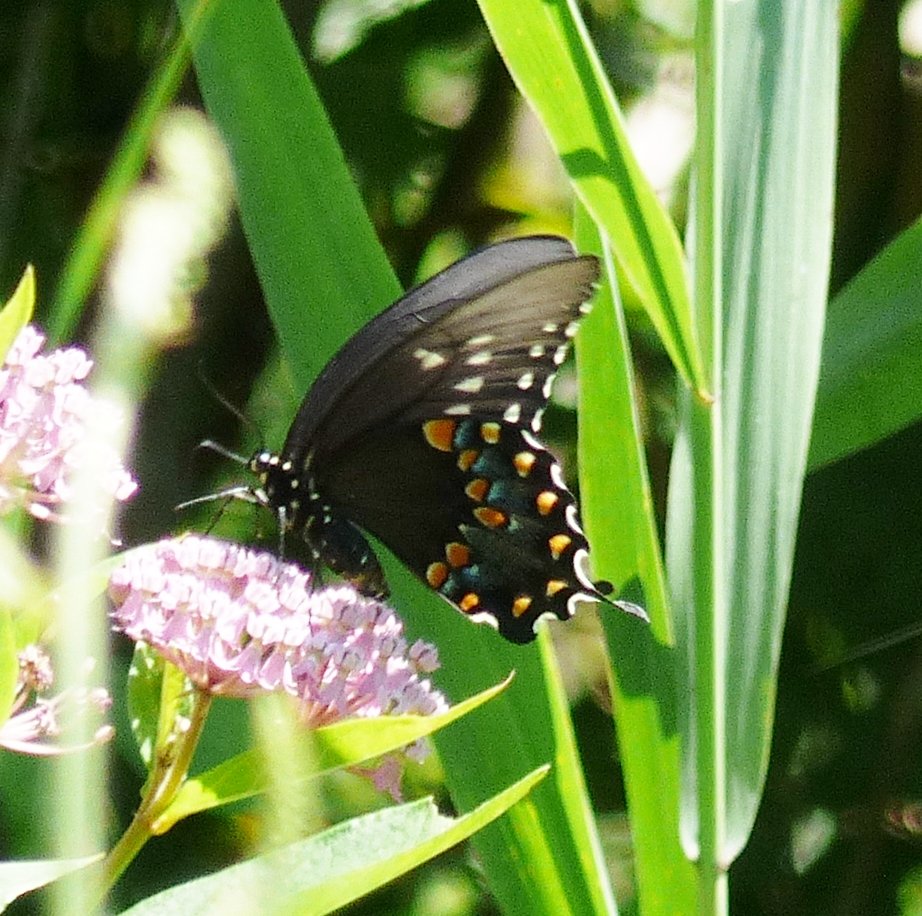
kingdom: Animalia
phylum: Arthropoda
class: Insecta
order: Lepidoptera
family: Papilionidae
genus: Pterourus
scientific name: Pterourus troilus
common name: Spicebush Swallowtail
